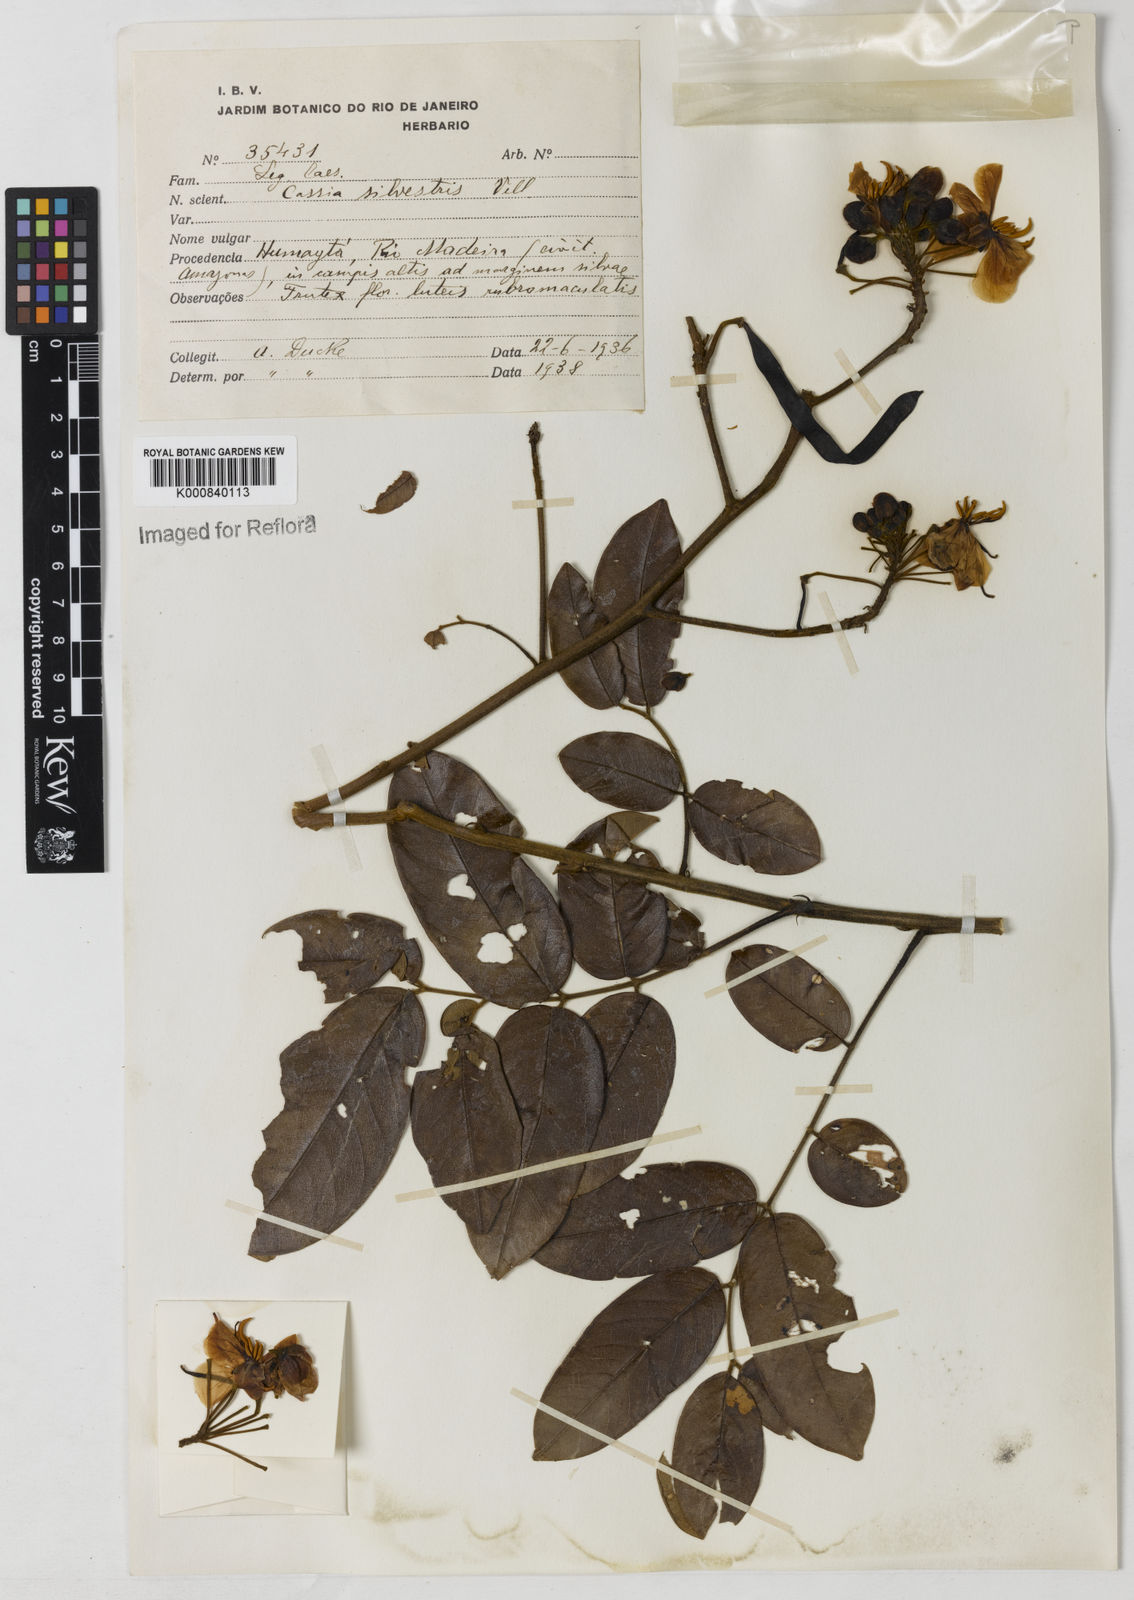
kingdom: Plantae
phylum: Tracheophyta
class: Magnoliopsida
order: Fabales
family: Fabaceae
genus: Senna
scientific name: Senna silvestris
